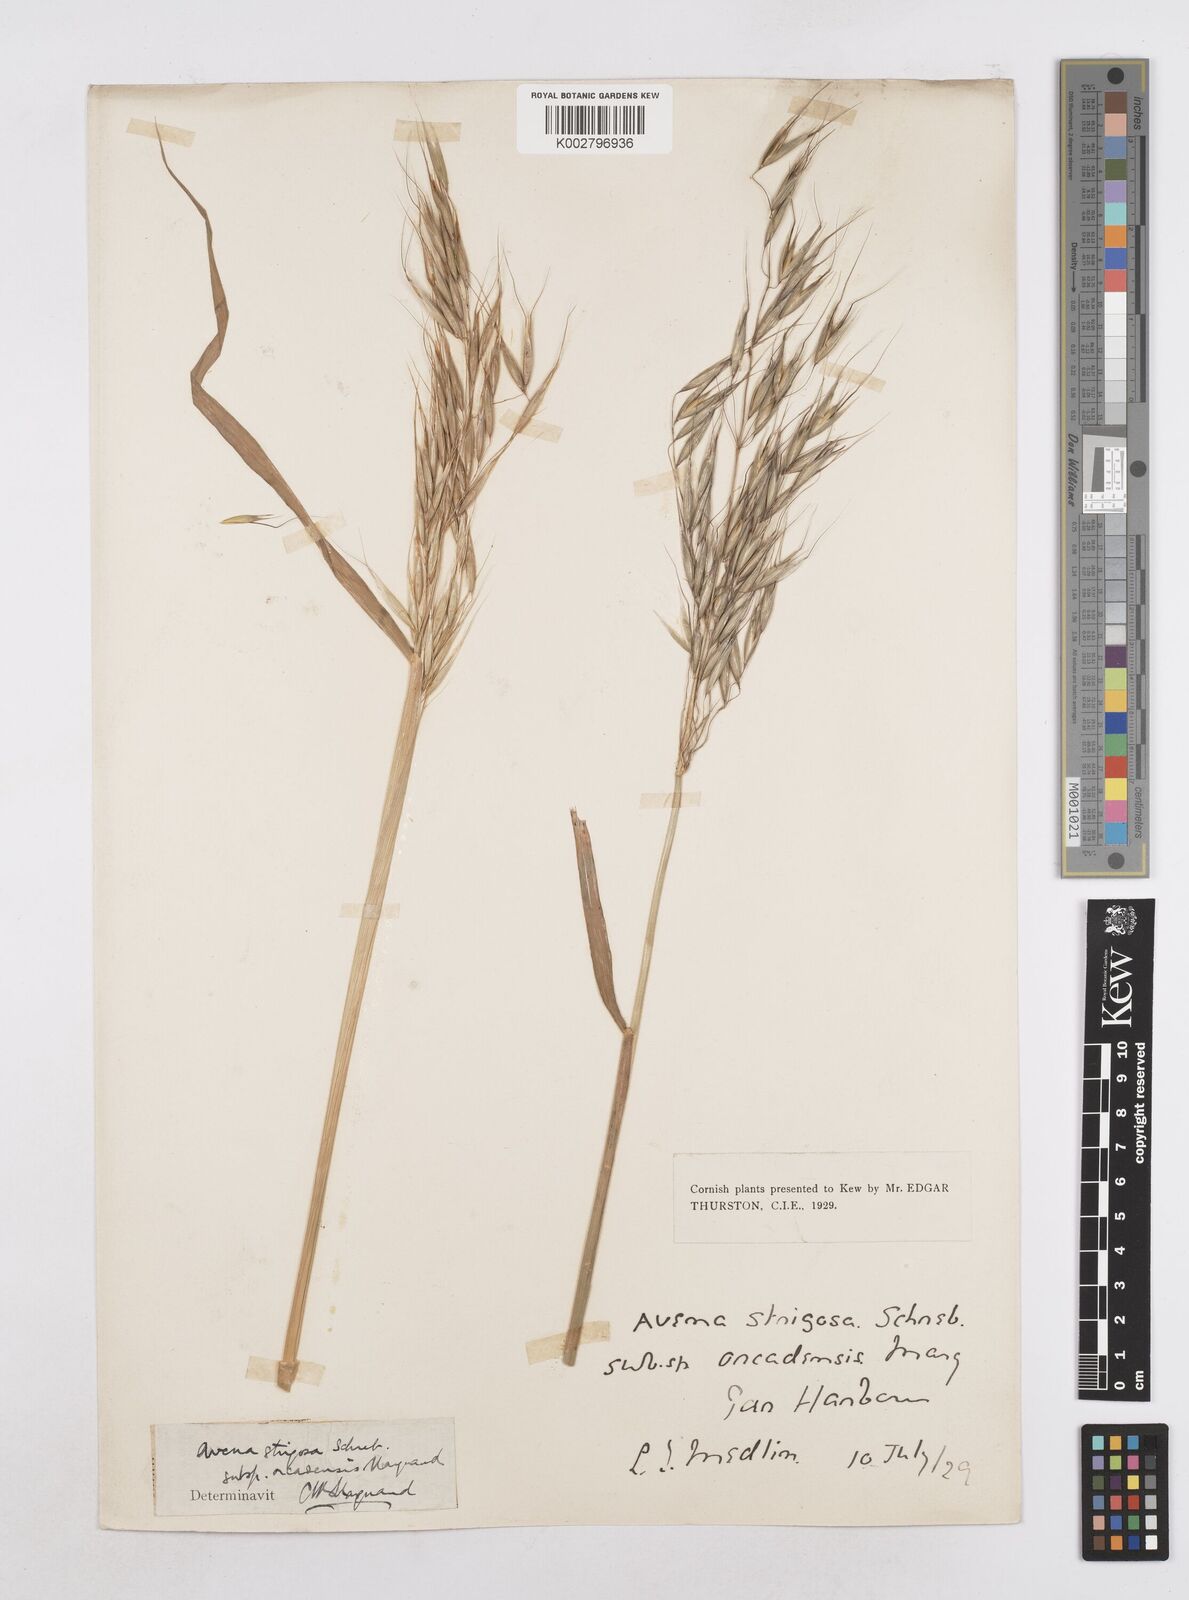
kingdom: Plantae
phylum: Tracheophyta
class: Liliopsida
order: Poales
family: Poaceae
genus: Avena
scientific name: Avena strigosa
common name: Bristle oat
